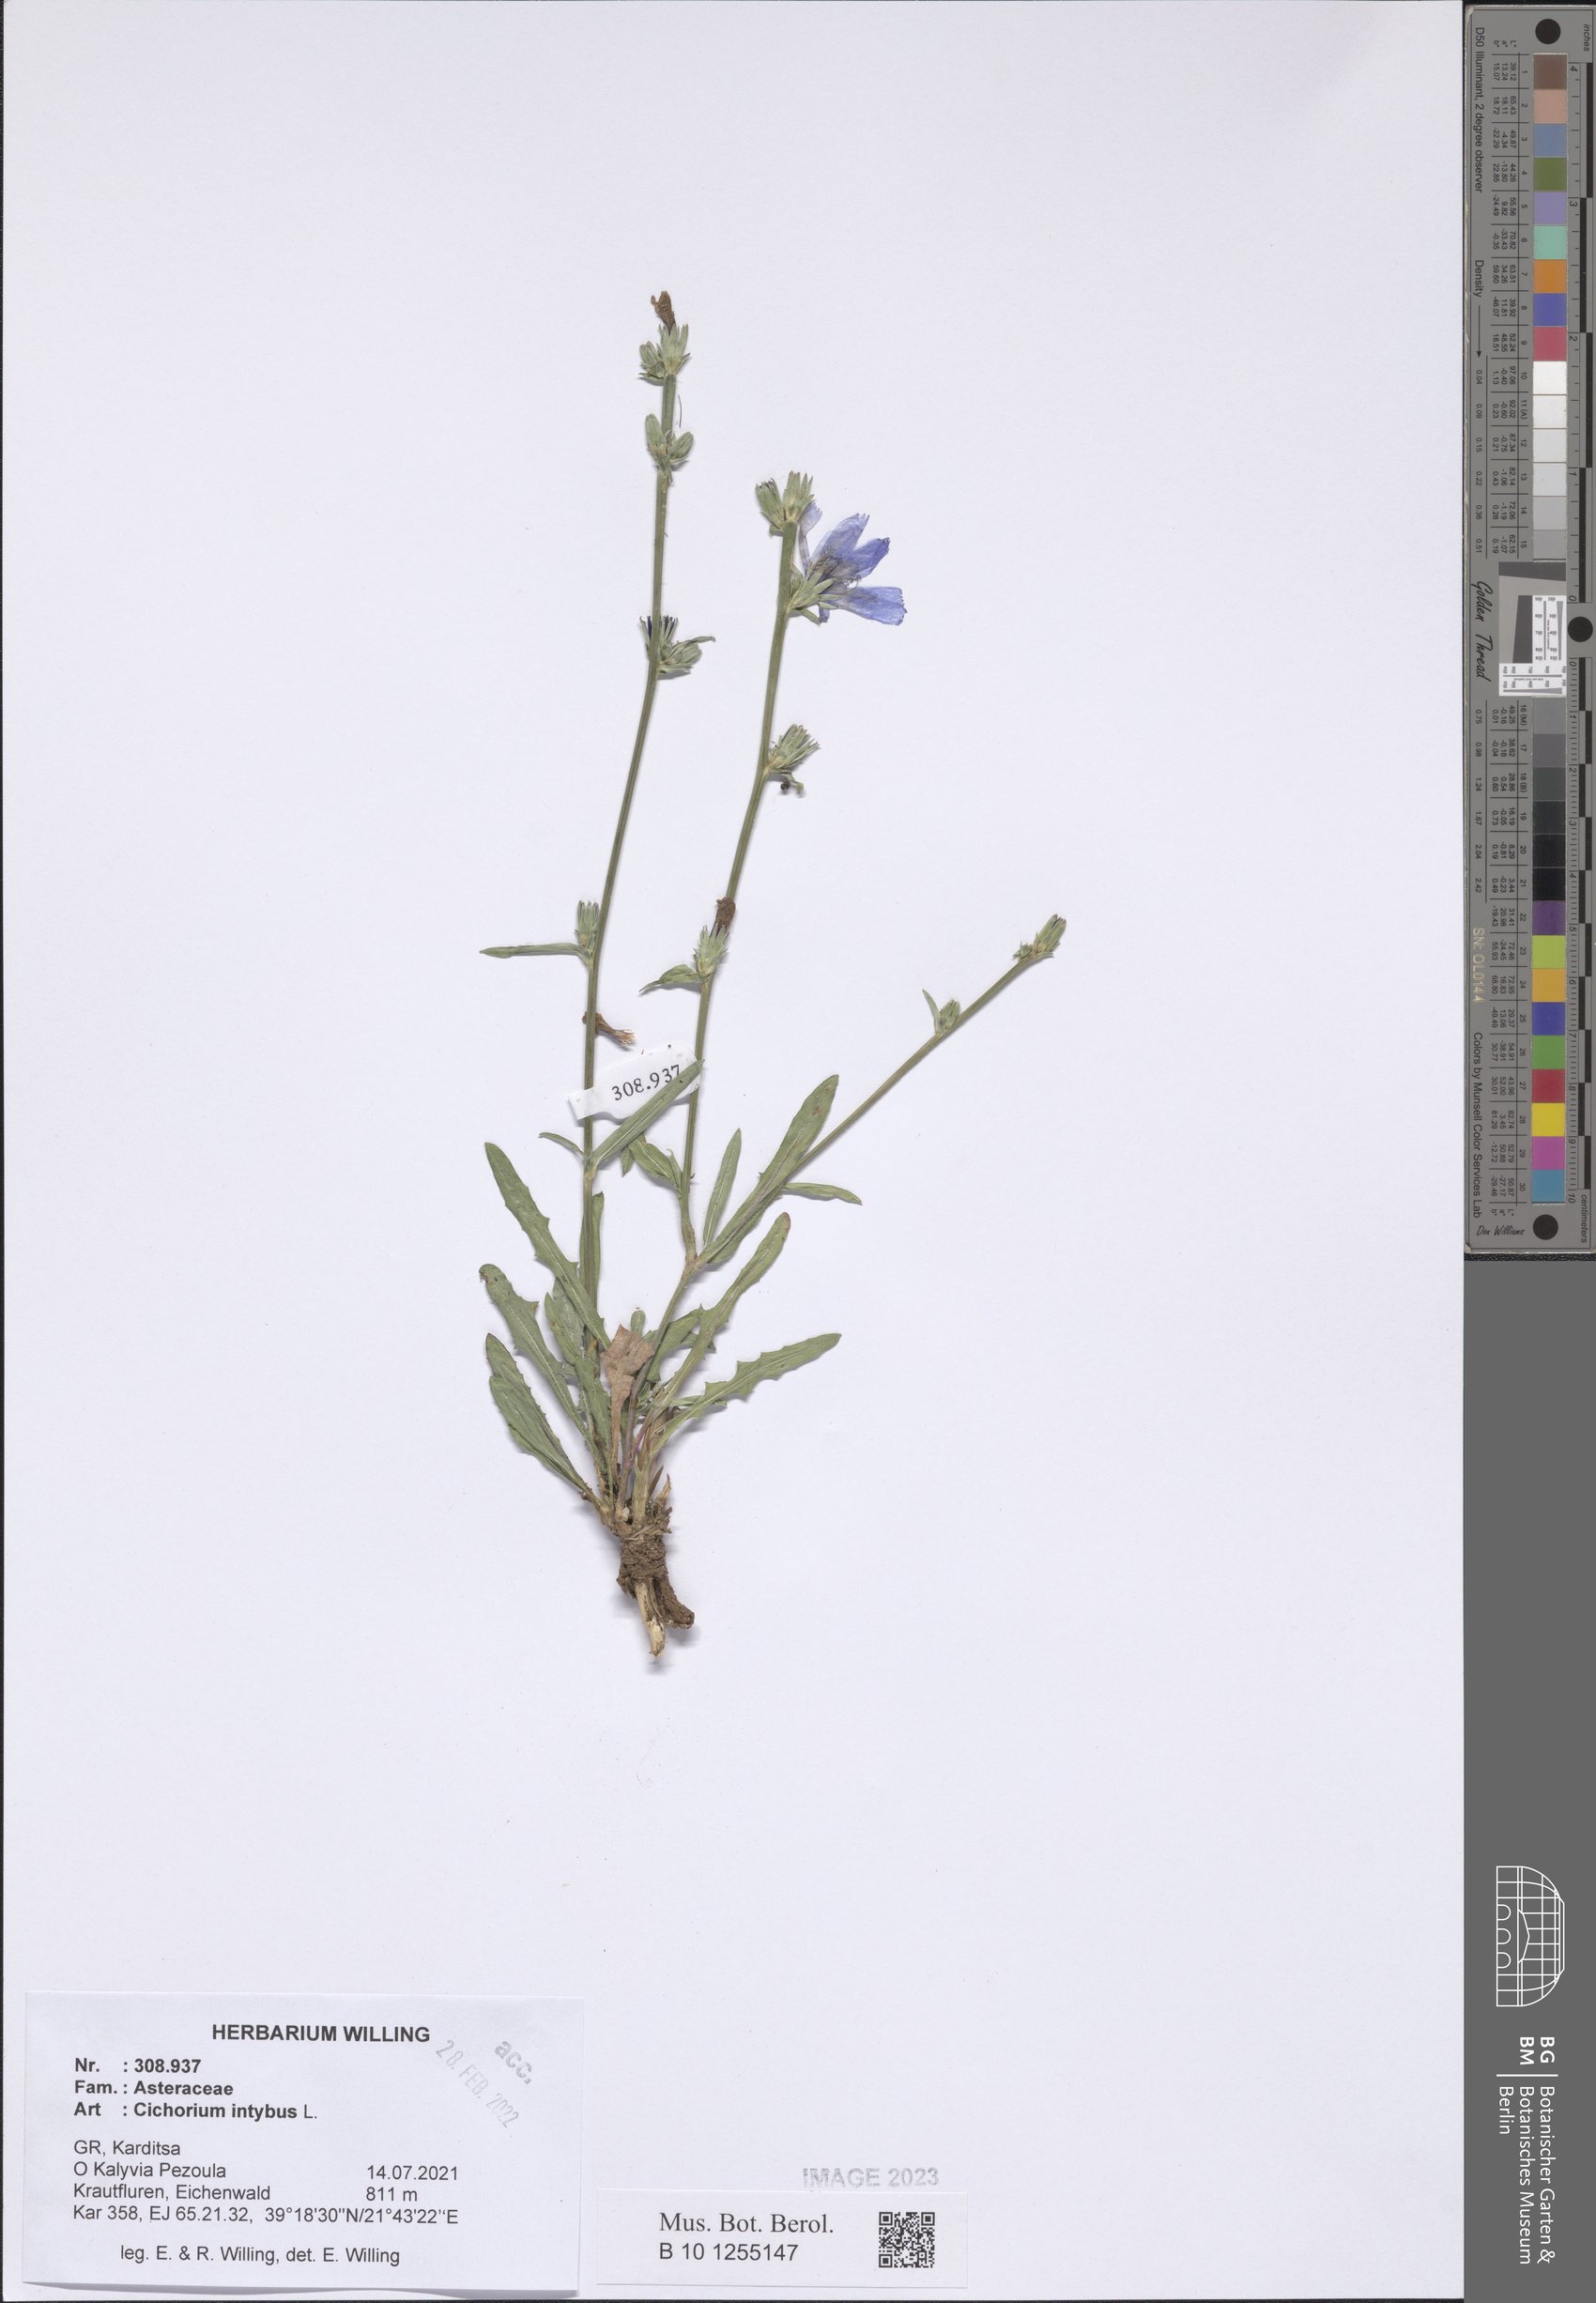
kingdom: Plantae
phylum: Tracheophyta
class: Magnoliopsida
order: Asterales
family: Asteraceae
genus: Cichorium
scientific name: Cichorium intybus
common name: Chicory
